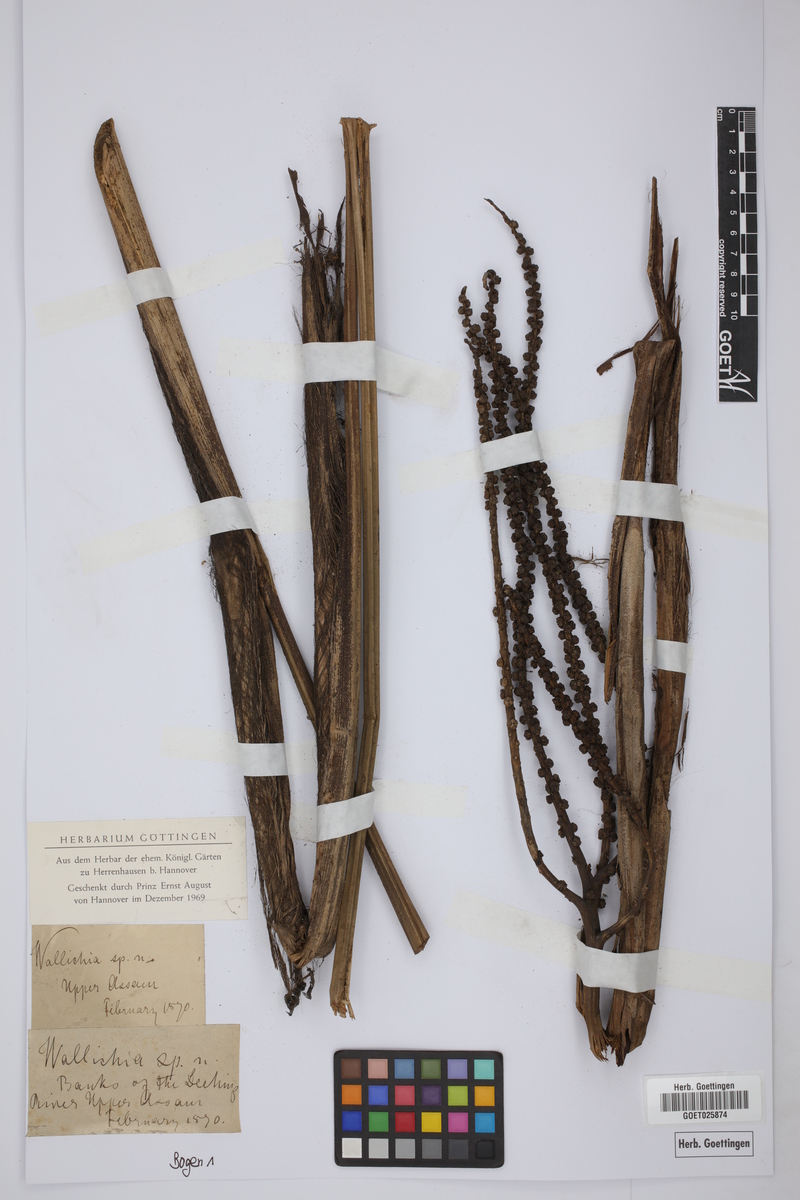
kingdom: Plantae
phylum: Tracheophyta
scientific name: Tracheophyta
